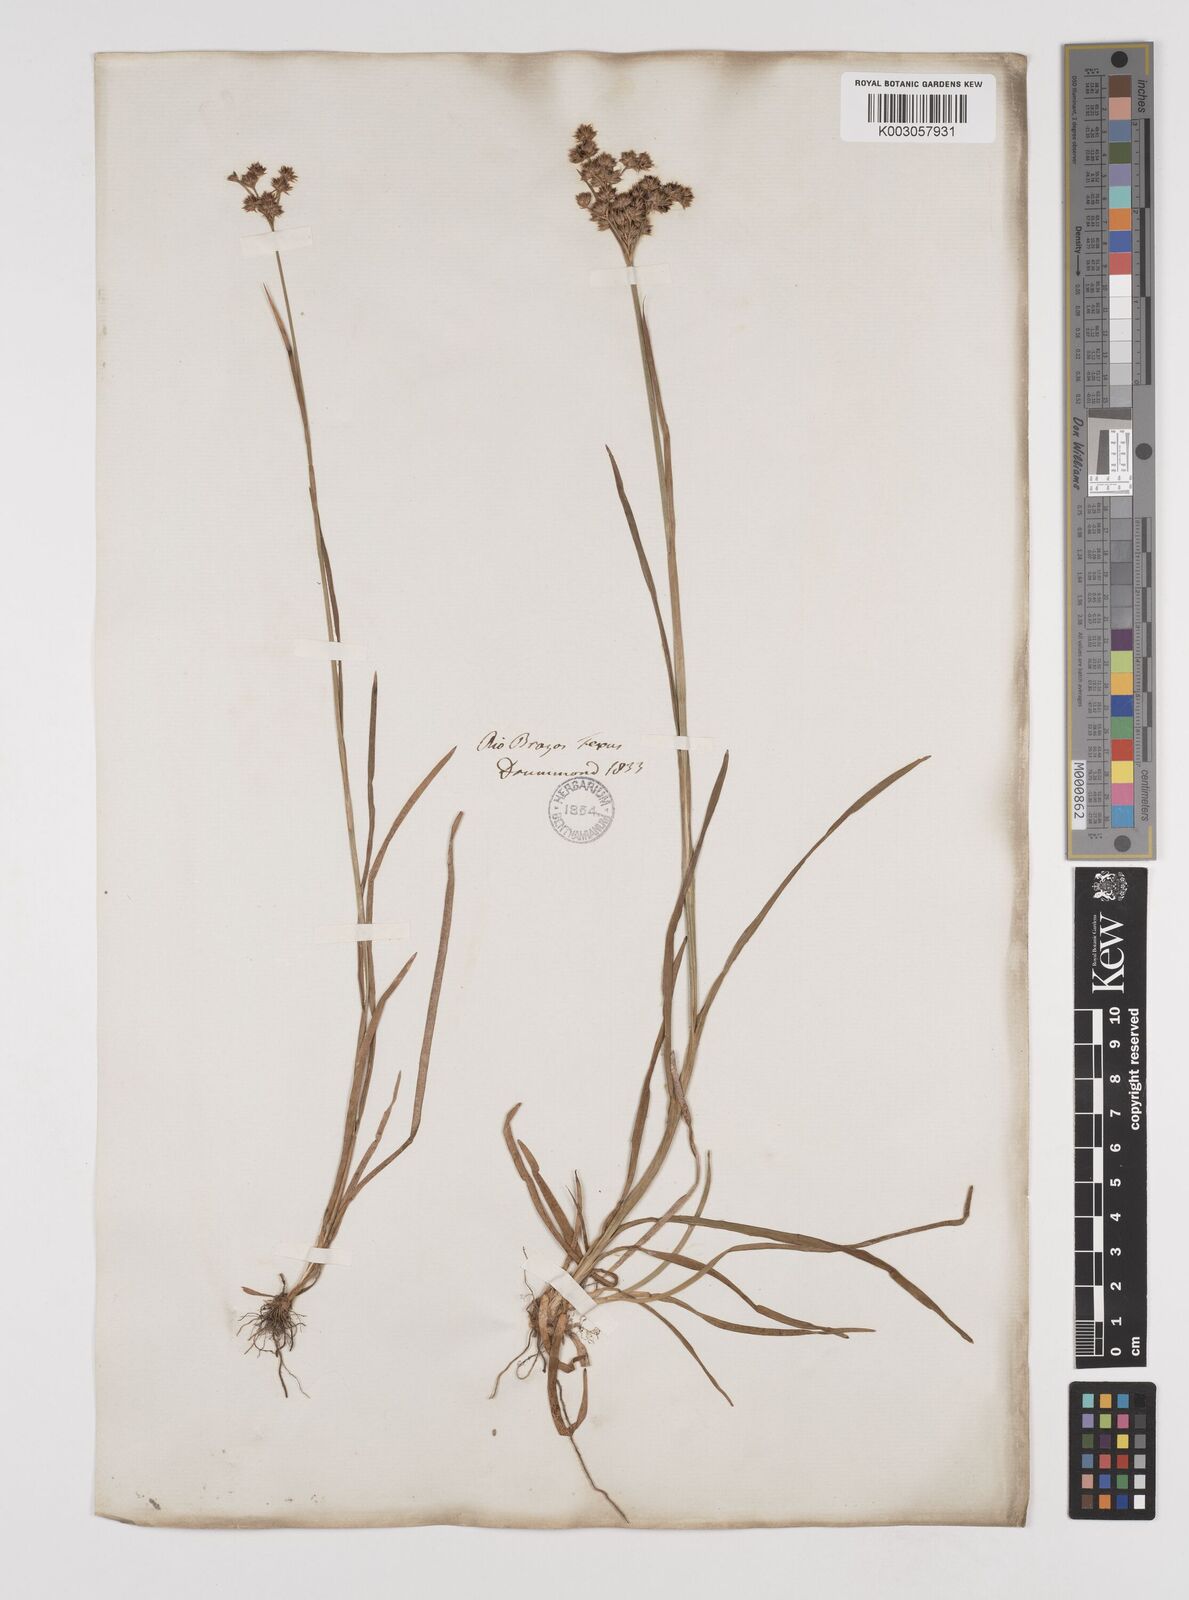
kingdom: Plantae
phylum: Tracheophyta
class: Liliopsida
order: Poales
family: Juncaceae
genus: Juncus
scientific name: Juncus marginatus
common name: Grass-leaf rush
